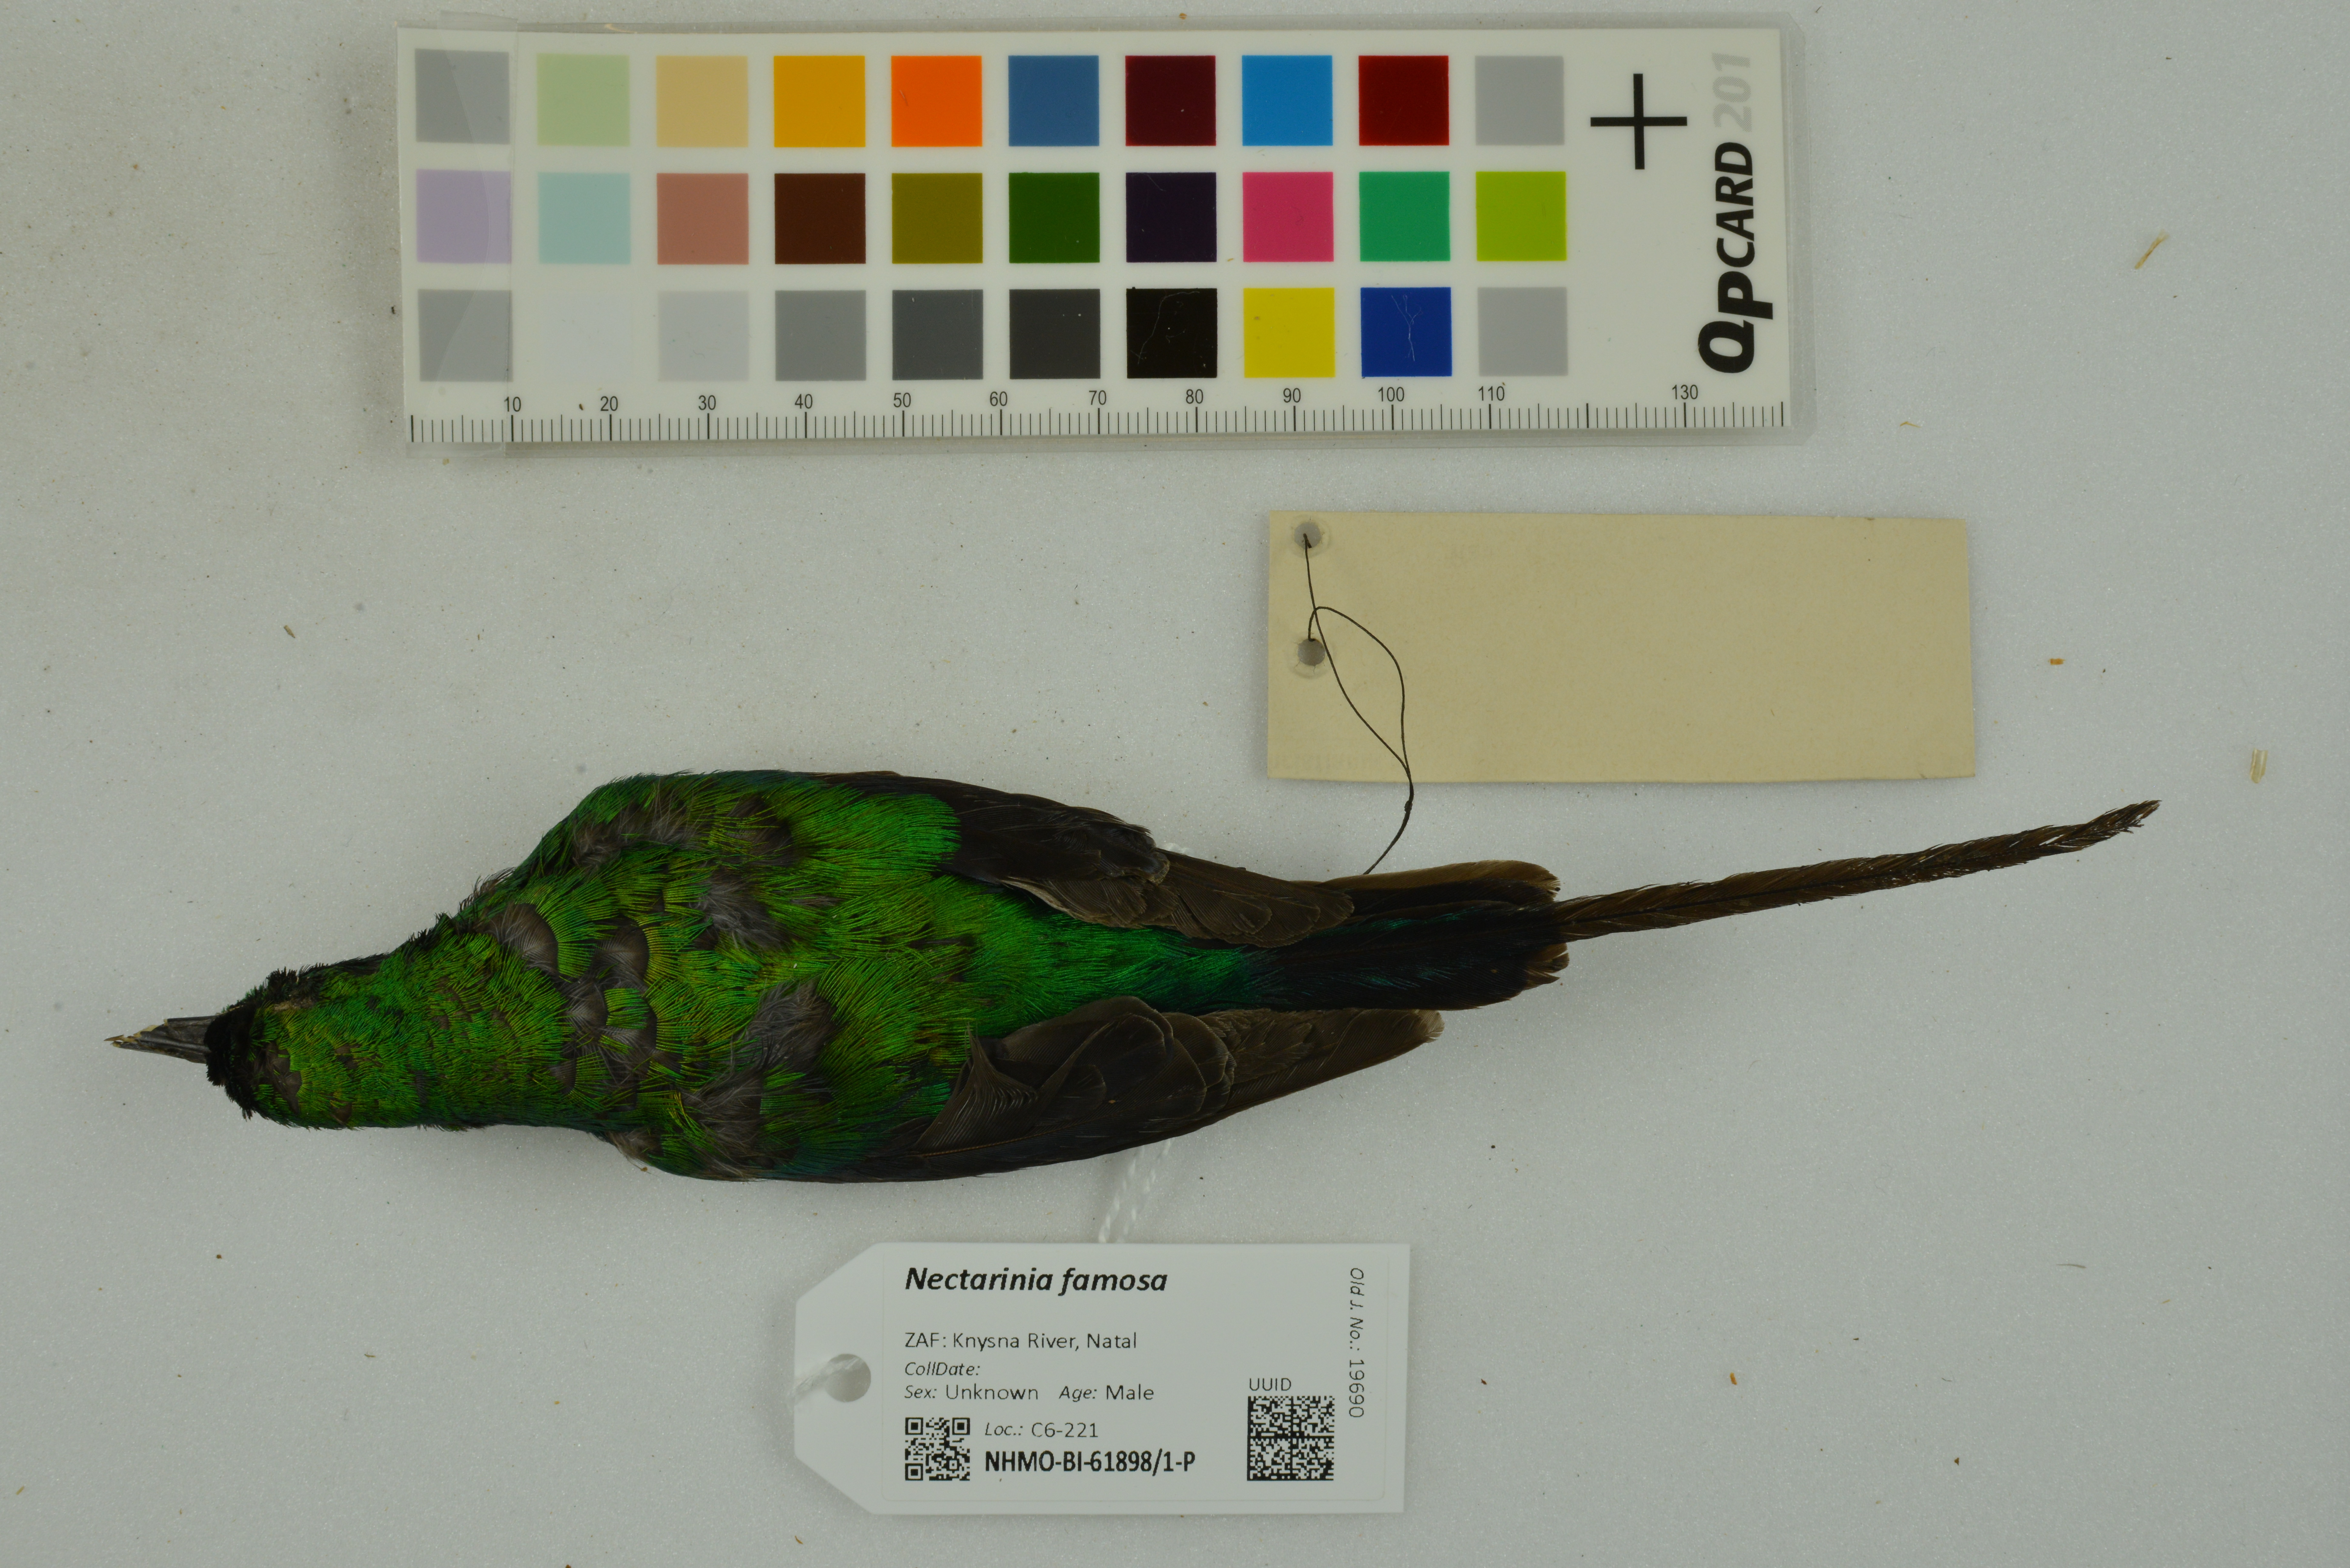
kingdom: Animalia
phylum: Chordata
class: Aves
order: Passeriformes
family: Nectariniidae
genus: Nectarinia
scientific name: Nectarinia famosa
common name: Malachite sunbird
